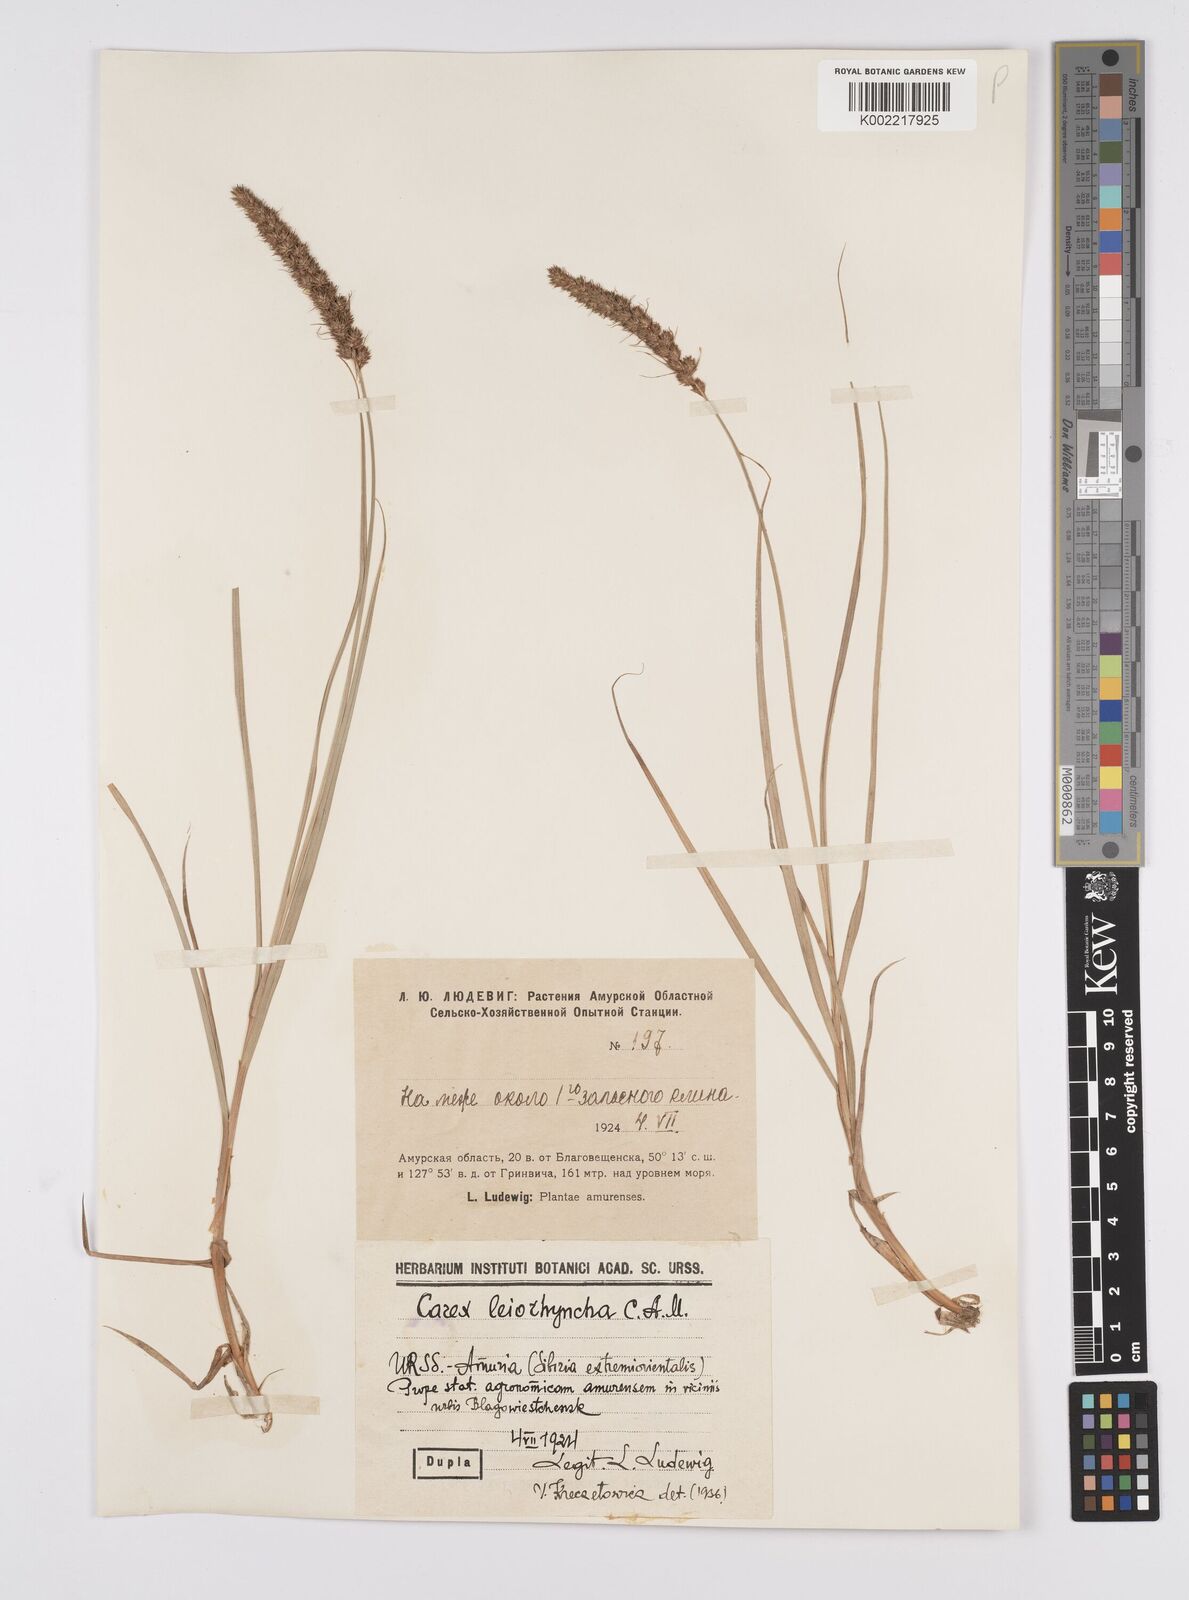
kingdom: Plantae
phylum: Tracheophyta
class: Liliopsida
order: Poales
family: Cyperaceae
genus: Carex
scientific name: Carex leiorhyncha
